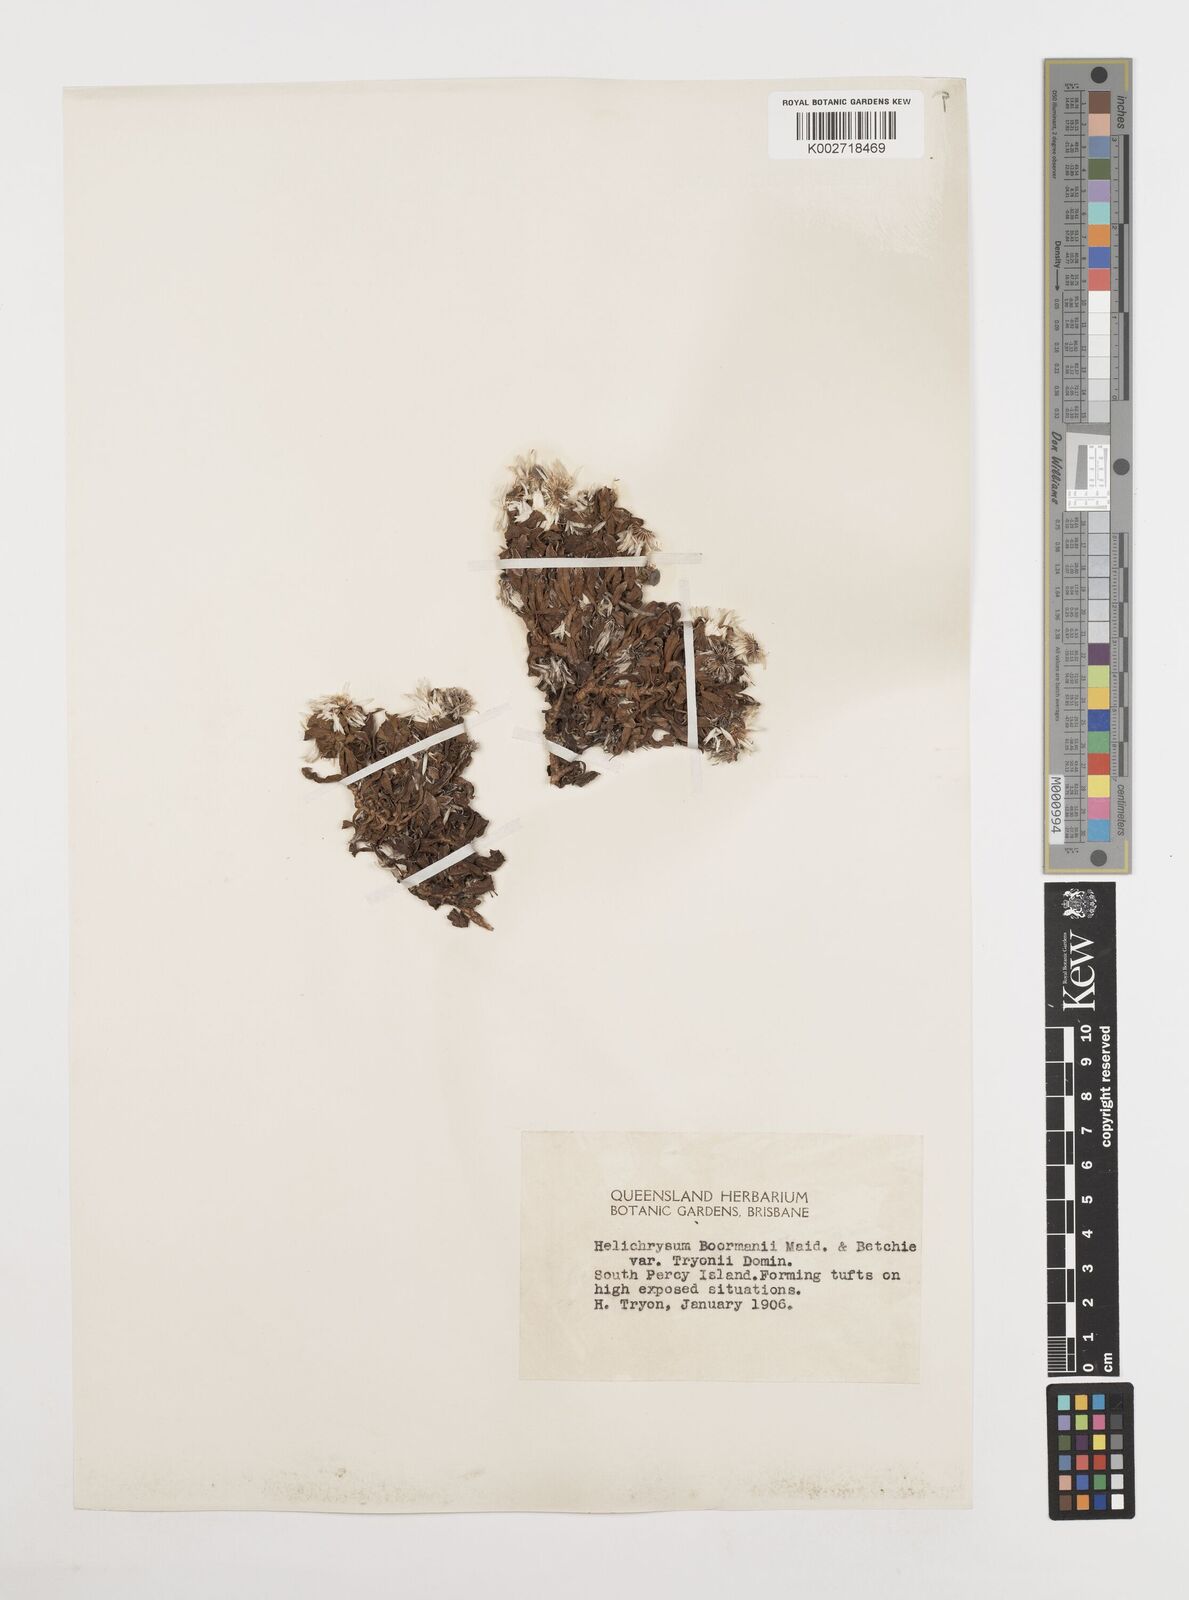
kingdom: Plantae
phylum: Tracheophyta
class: Magnoliopsida
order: Asterales
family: Asteraceae
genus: Coronidium
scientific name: Coronidium lanuginosum
